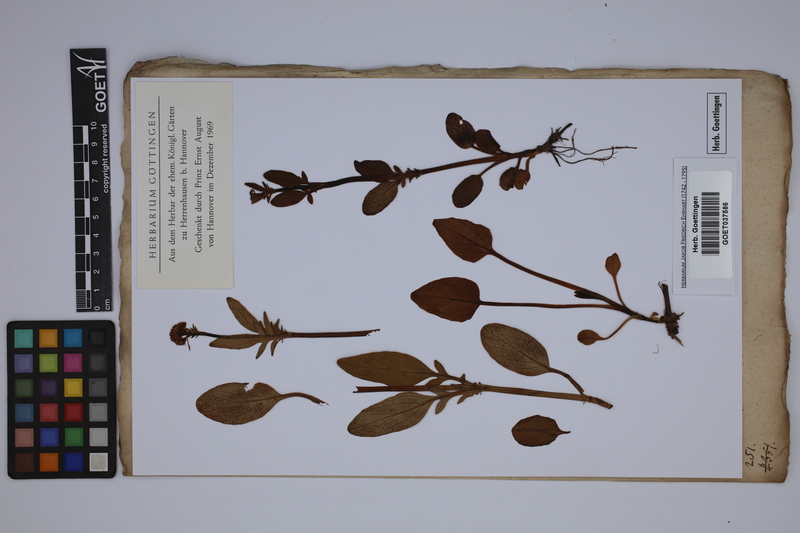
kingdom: Plantae
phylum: Tracheophyta
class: Magnoliopsida
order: Dipsacales
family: Caprifoliaceae
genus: Valeriana
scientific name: Valeriana dioica
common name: Marsh valerian
